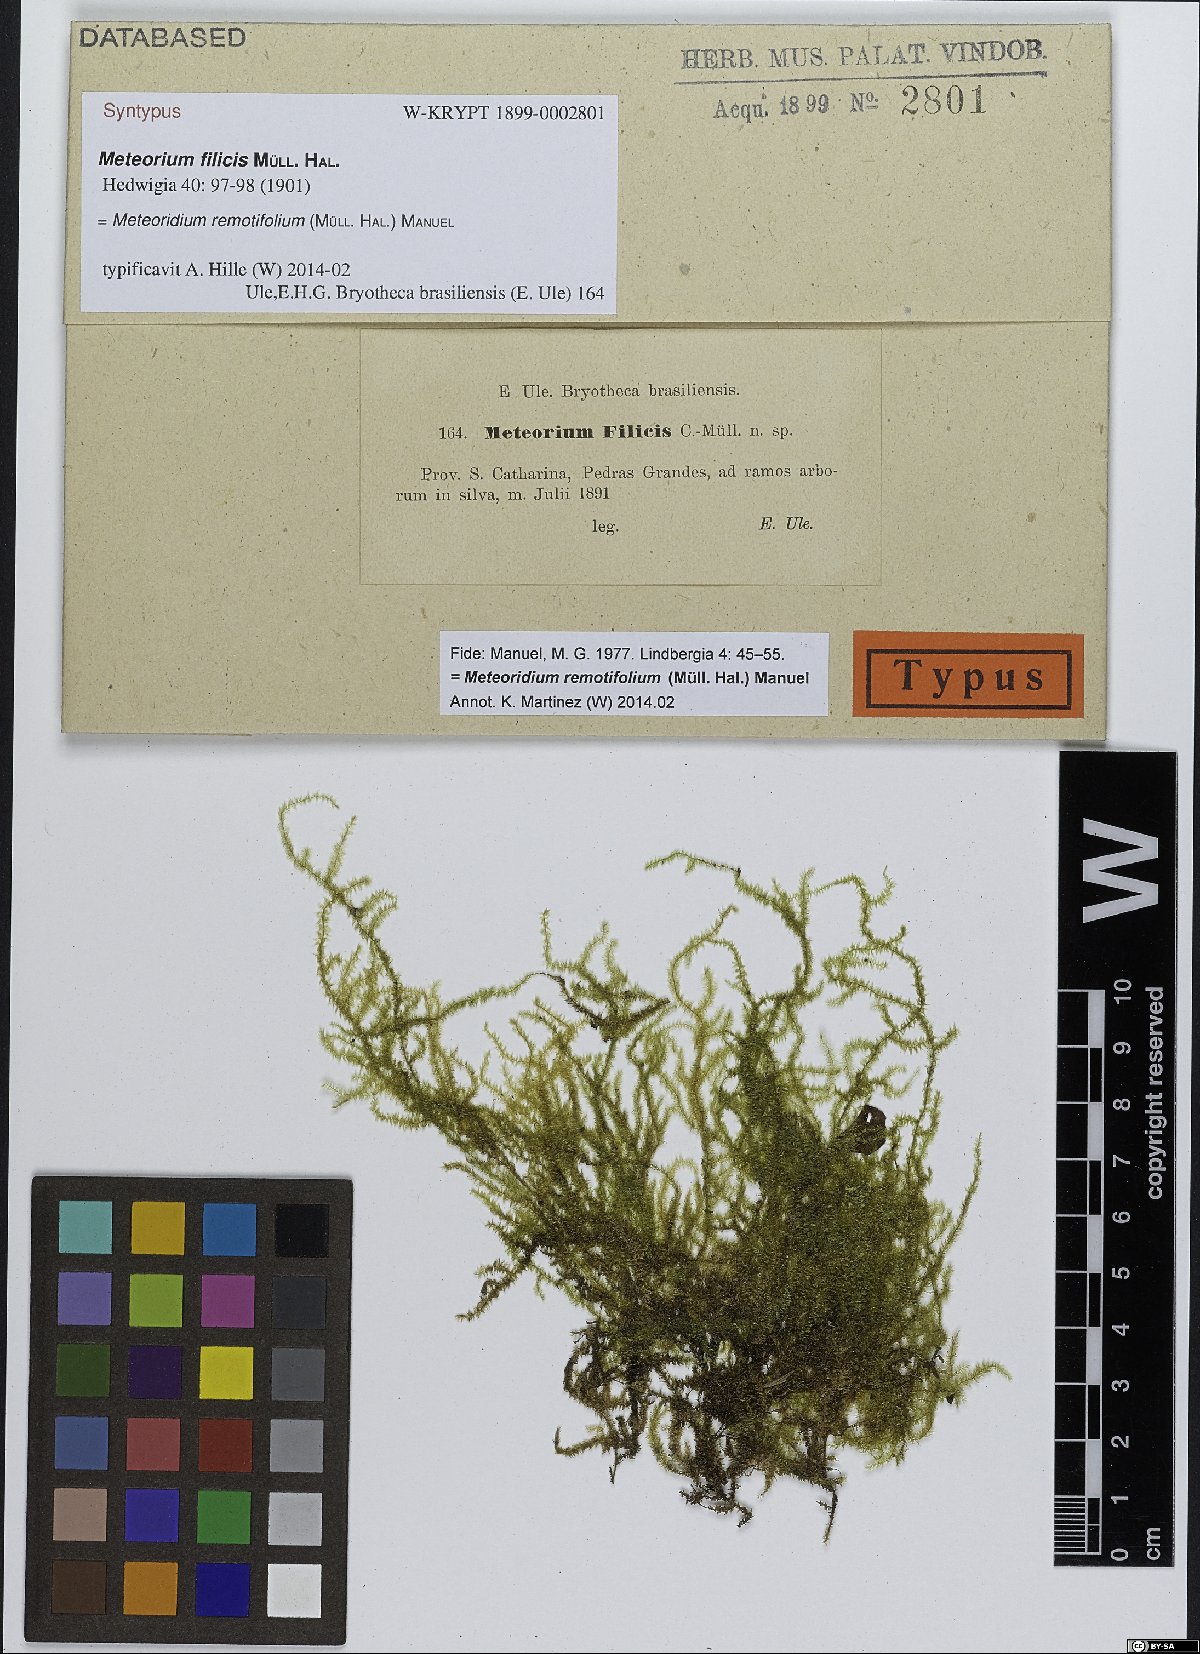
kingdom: Plantae
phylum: Bryophyta
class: Bryopsida
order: Hypnales
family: Brachytheciaceae
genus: Meteoridium
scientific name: Meteoridium remotifolium
